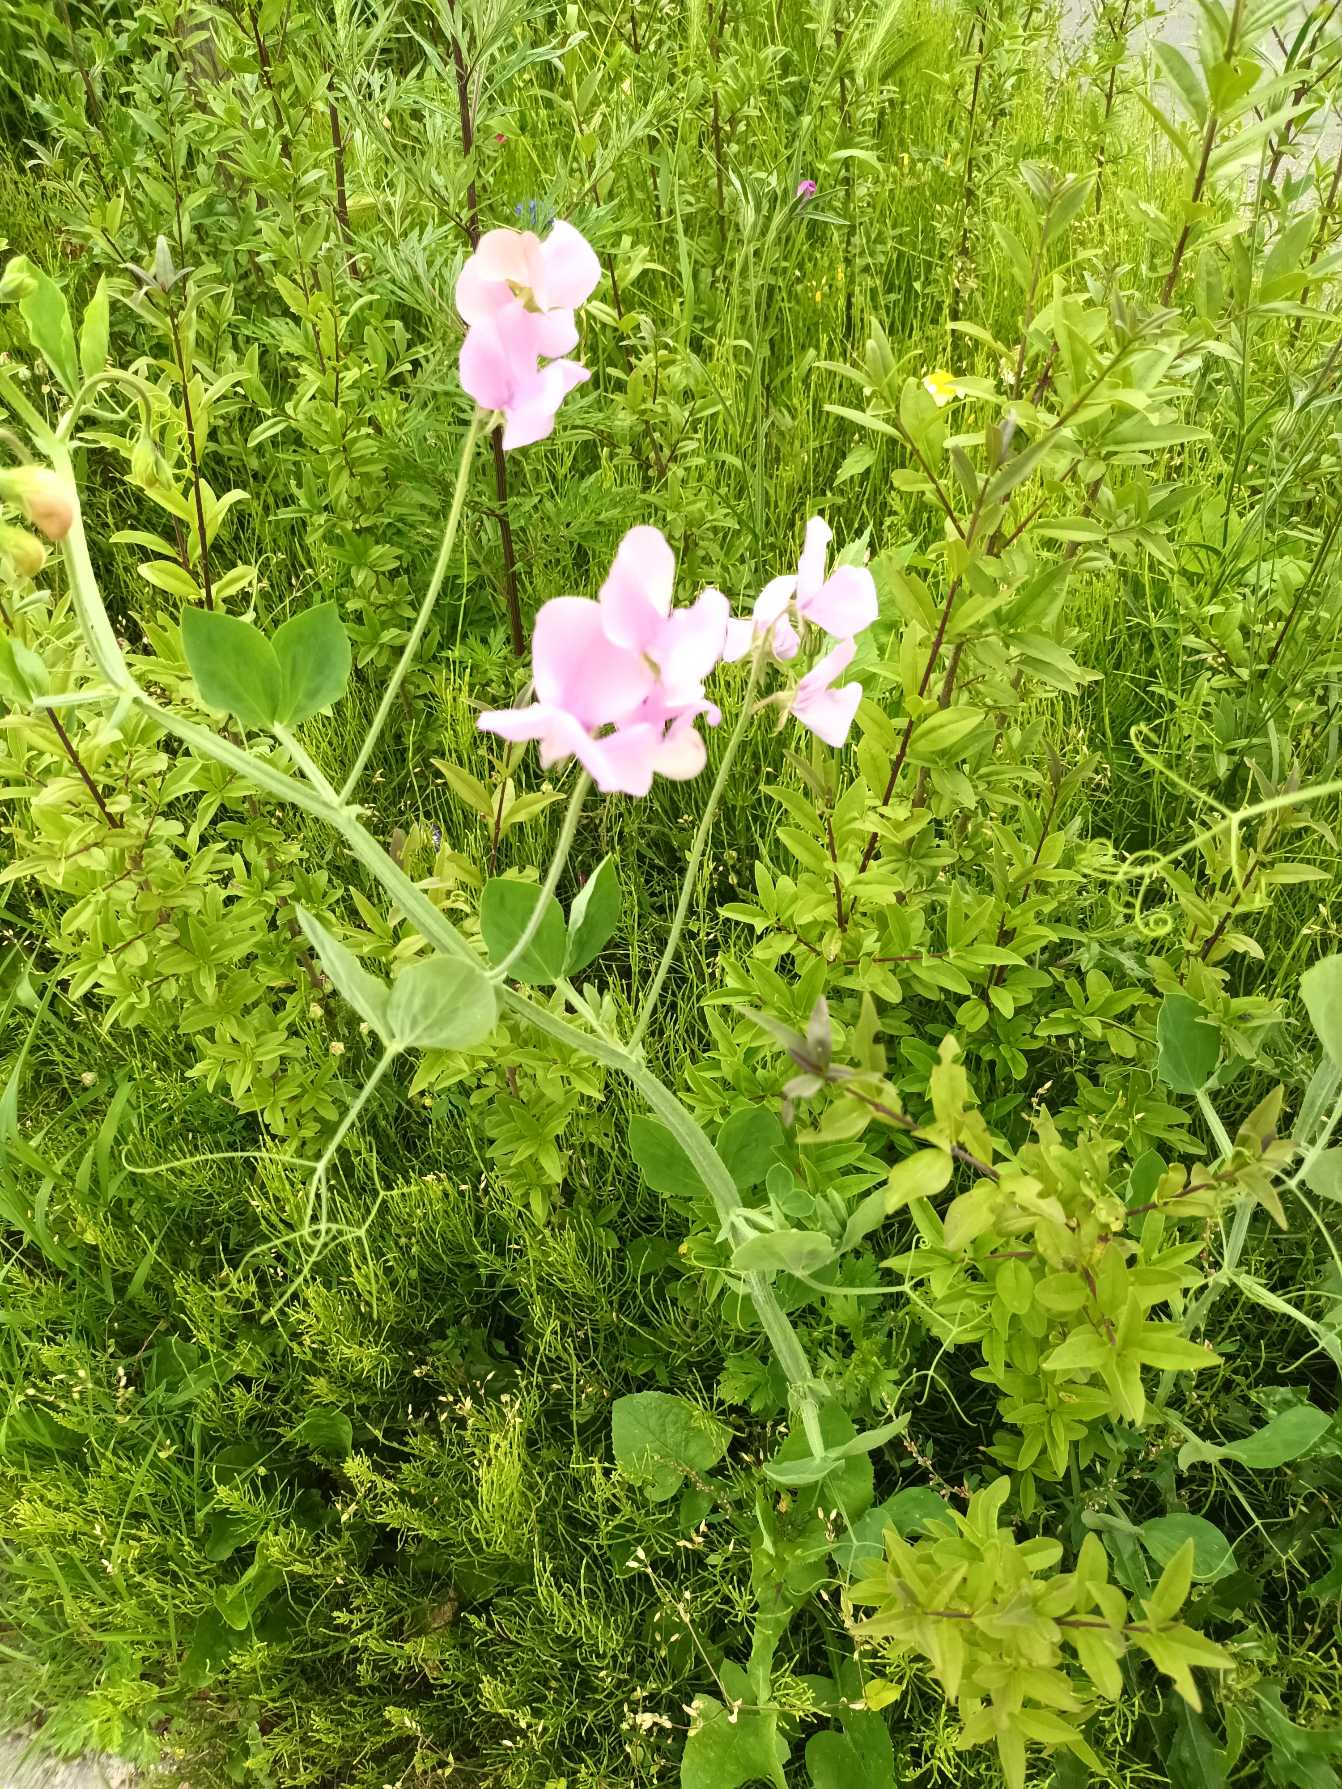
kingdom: Plantae
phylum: Tracheophyta
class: Magnoliopsida
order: Fabales
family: Fabaceae
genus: Lathyrus
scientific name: Lathyrus odoratus
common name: Almindelig ærteblomst
